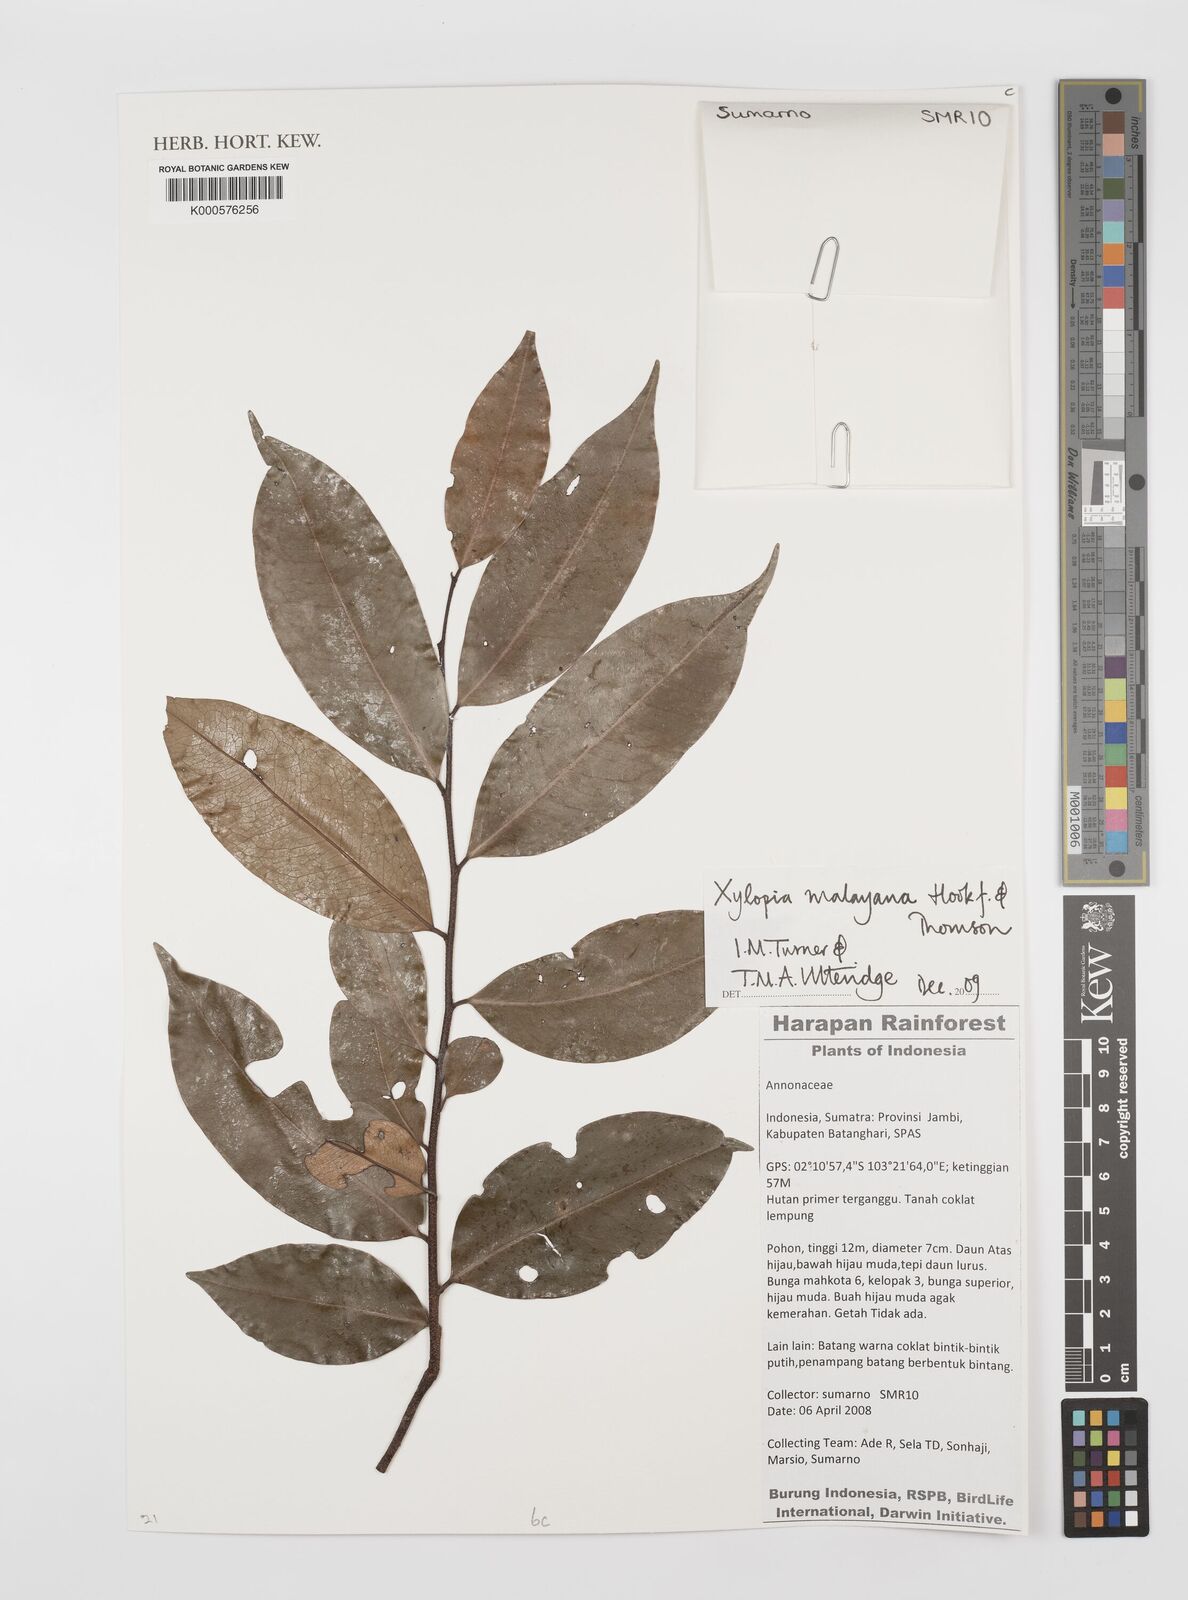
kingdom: Plantae
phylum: Tracheophyta
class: Magnoliopsida
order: Magnoliales
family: Annonaceae
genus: Xylopia
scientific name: Xylopia malayana
